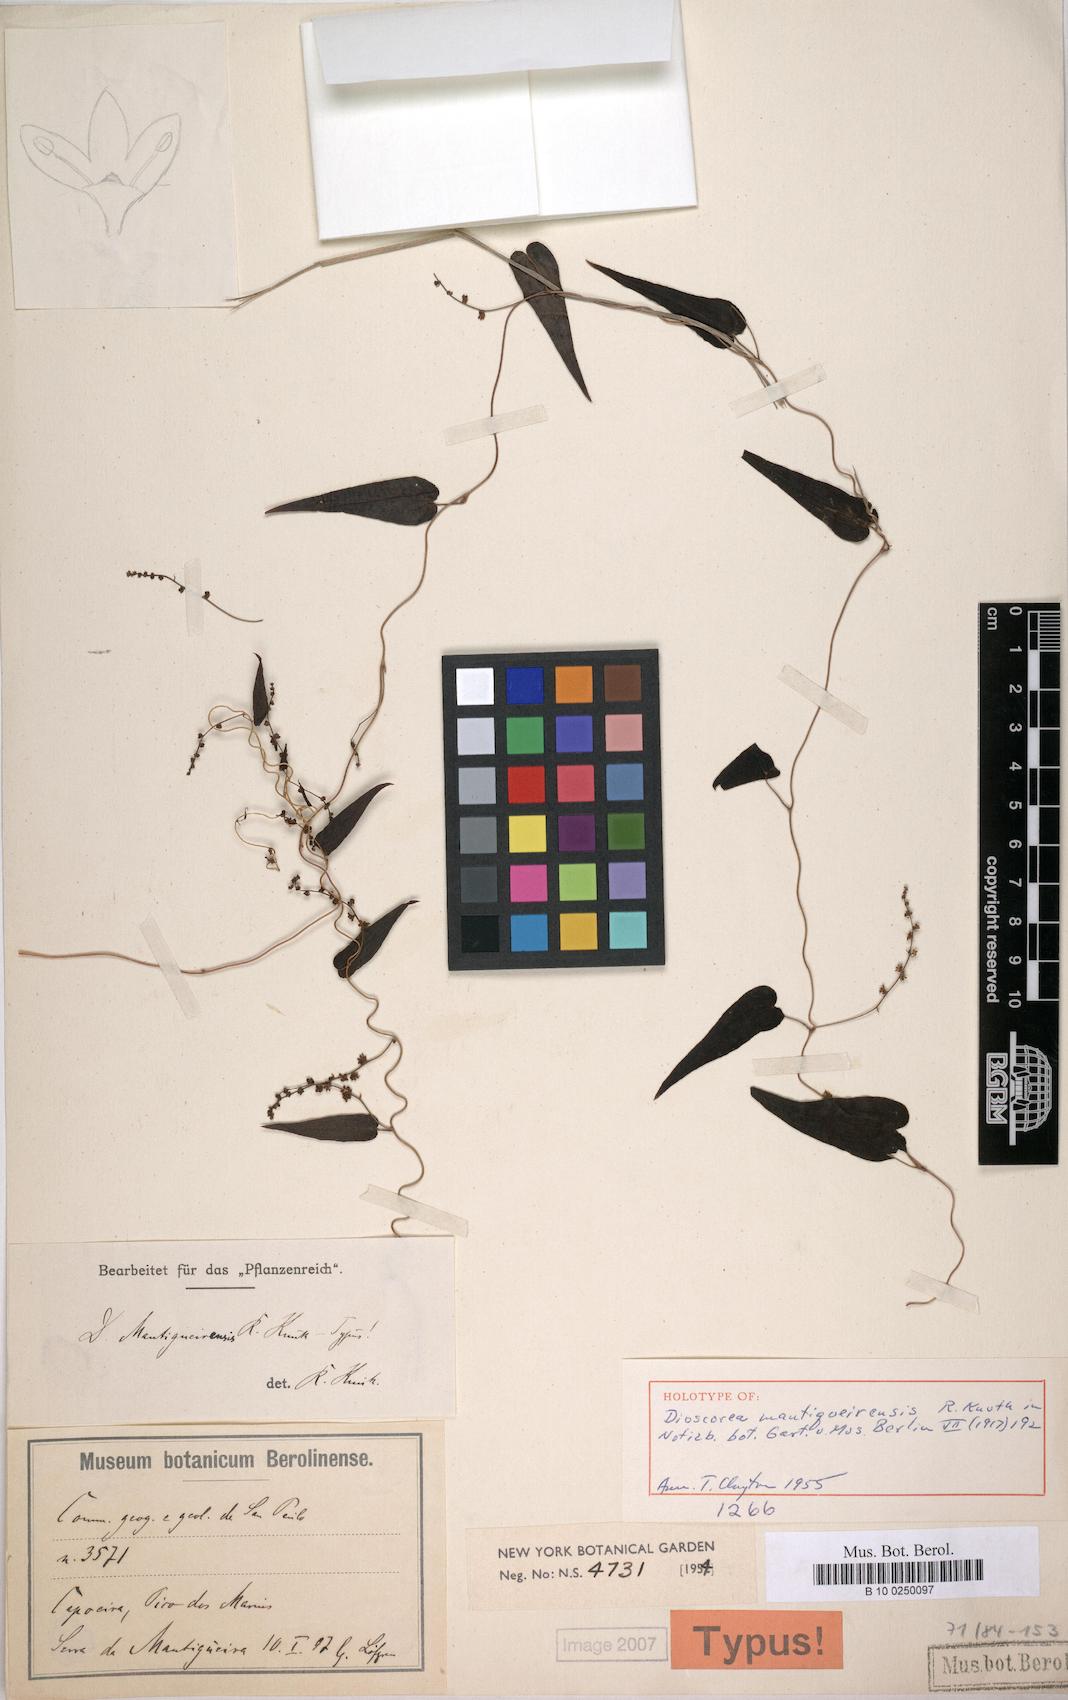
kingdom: Plantae
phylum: Tracheophyta
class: Liliopsida
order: Dioscoreales
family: Dioscoreaceae
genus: Dioscorea
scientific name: Dioscorea mantigueirensis
